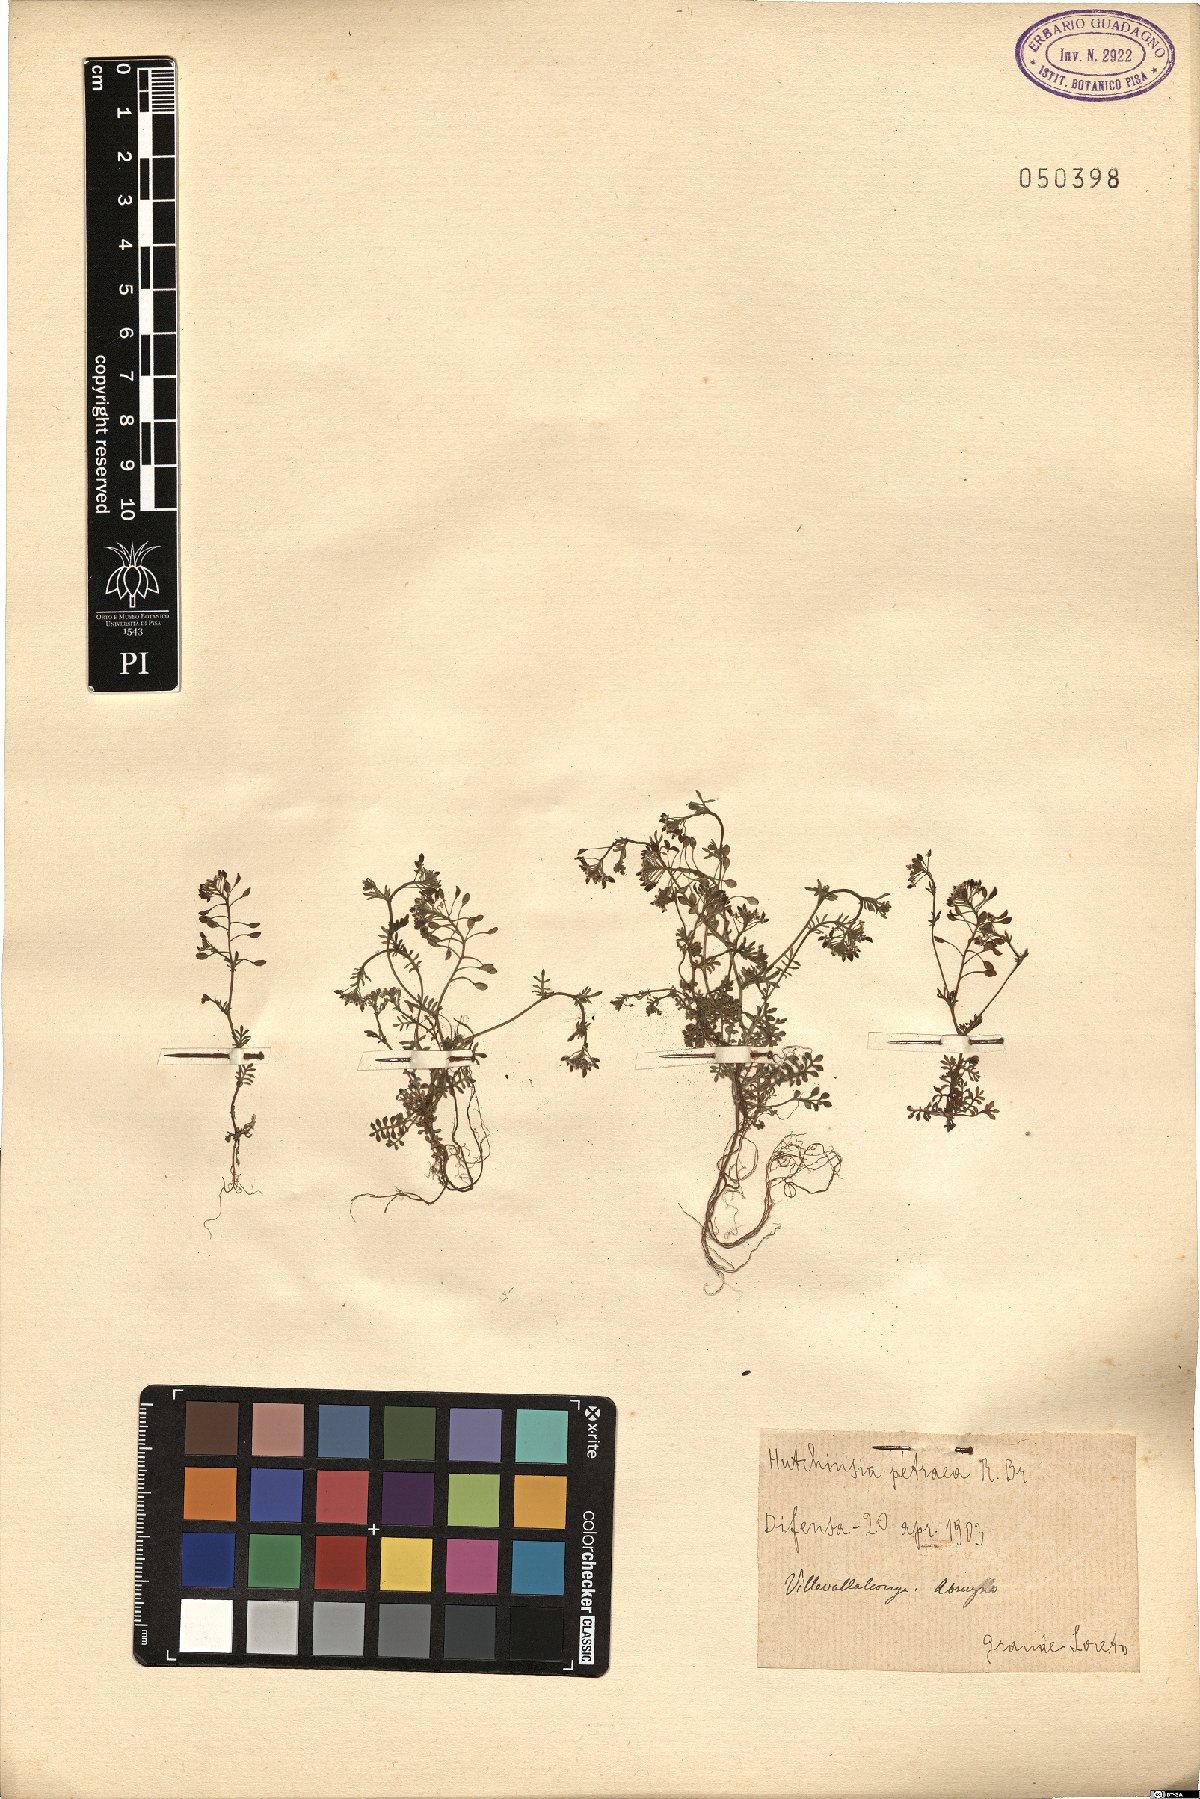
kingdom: Plantae
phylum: Tracheophyta
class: Magnoliopsida
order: Brassicales
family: Brassicaceae
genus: Hornungia
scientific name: Hornungia petraea
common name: Hutchinsia
